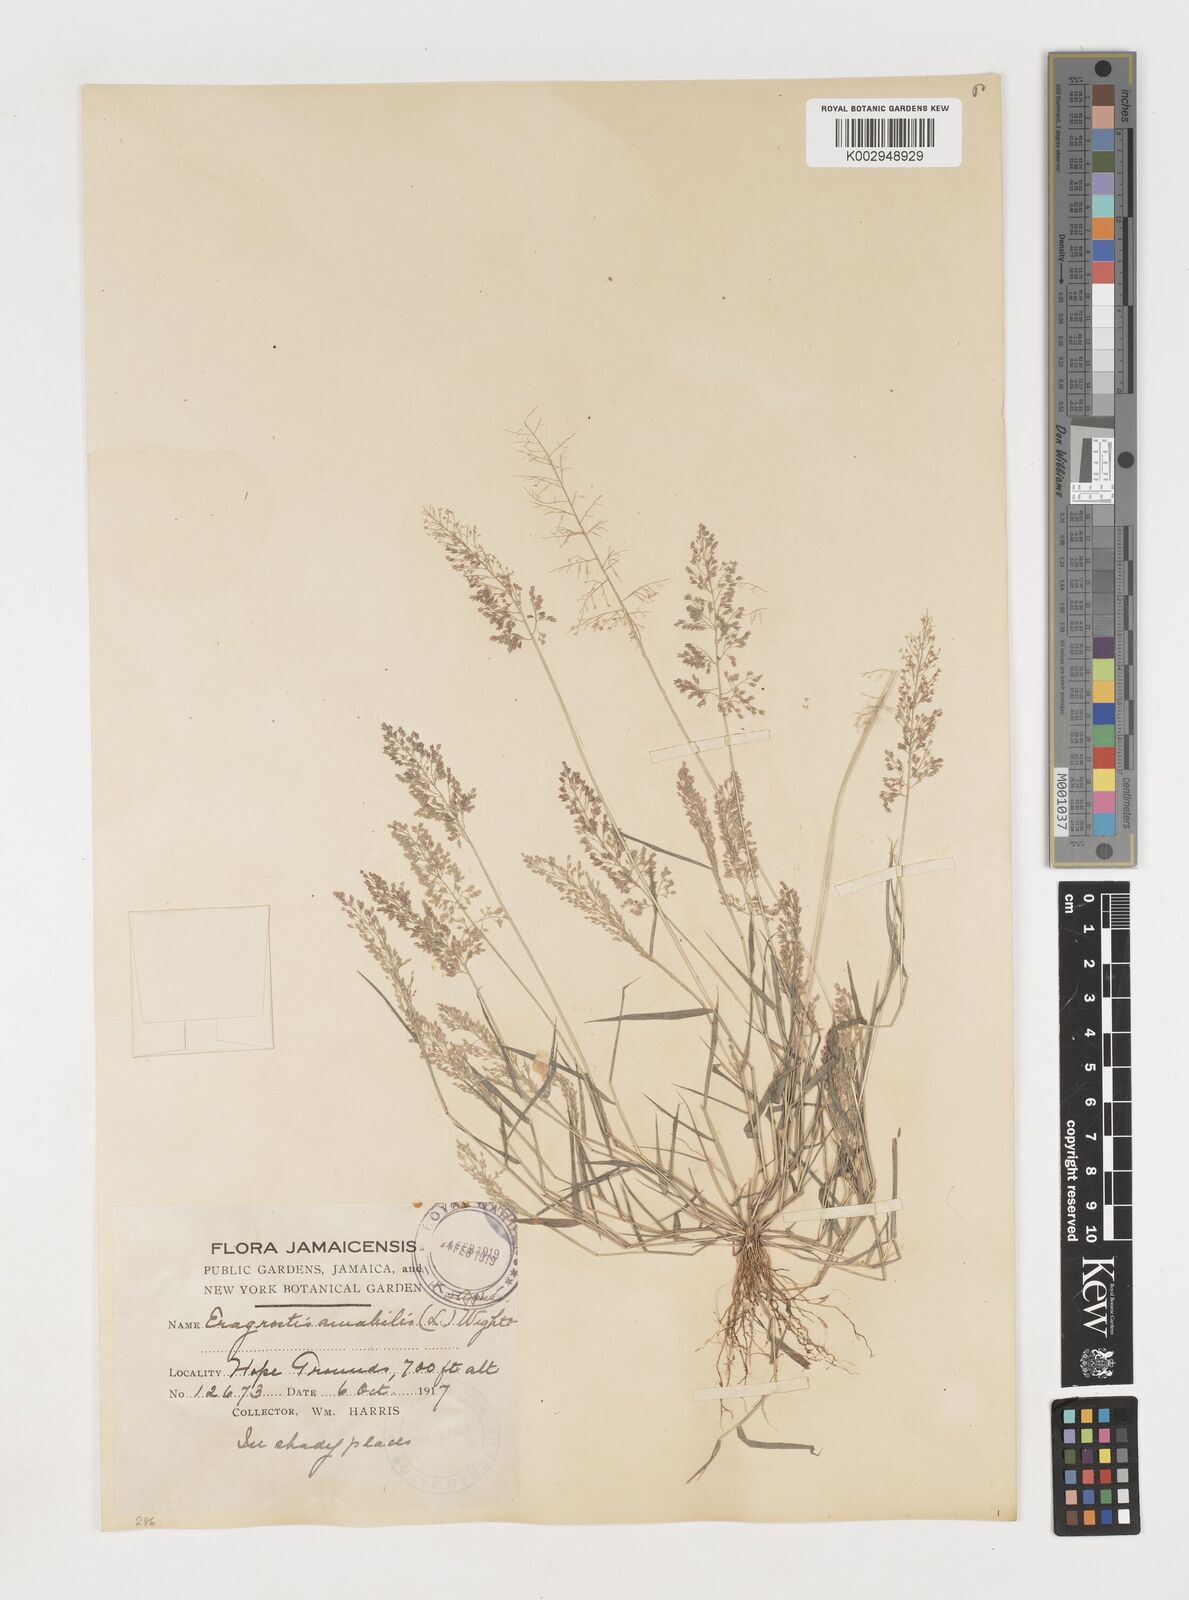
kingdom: Plantae
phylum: Tracheophyta
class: Liliopsida
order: Poales
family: Poaceae
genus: Eragrostis
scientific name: Eragrostis tenella
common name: Japanese lovegrass
